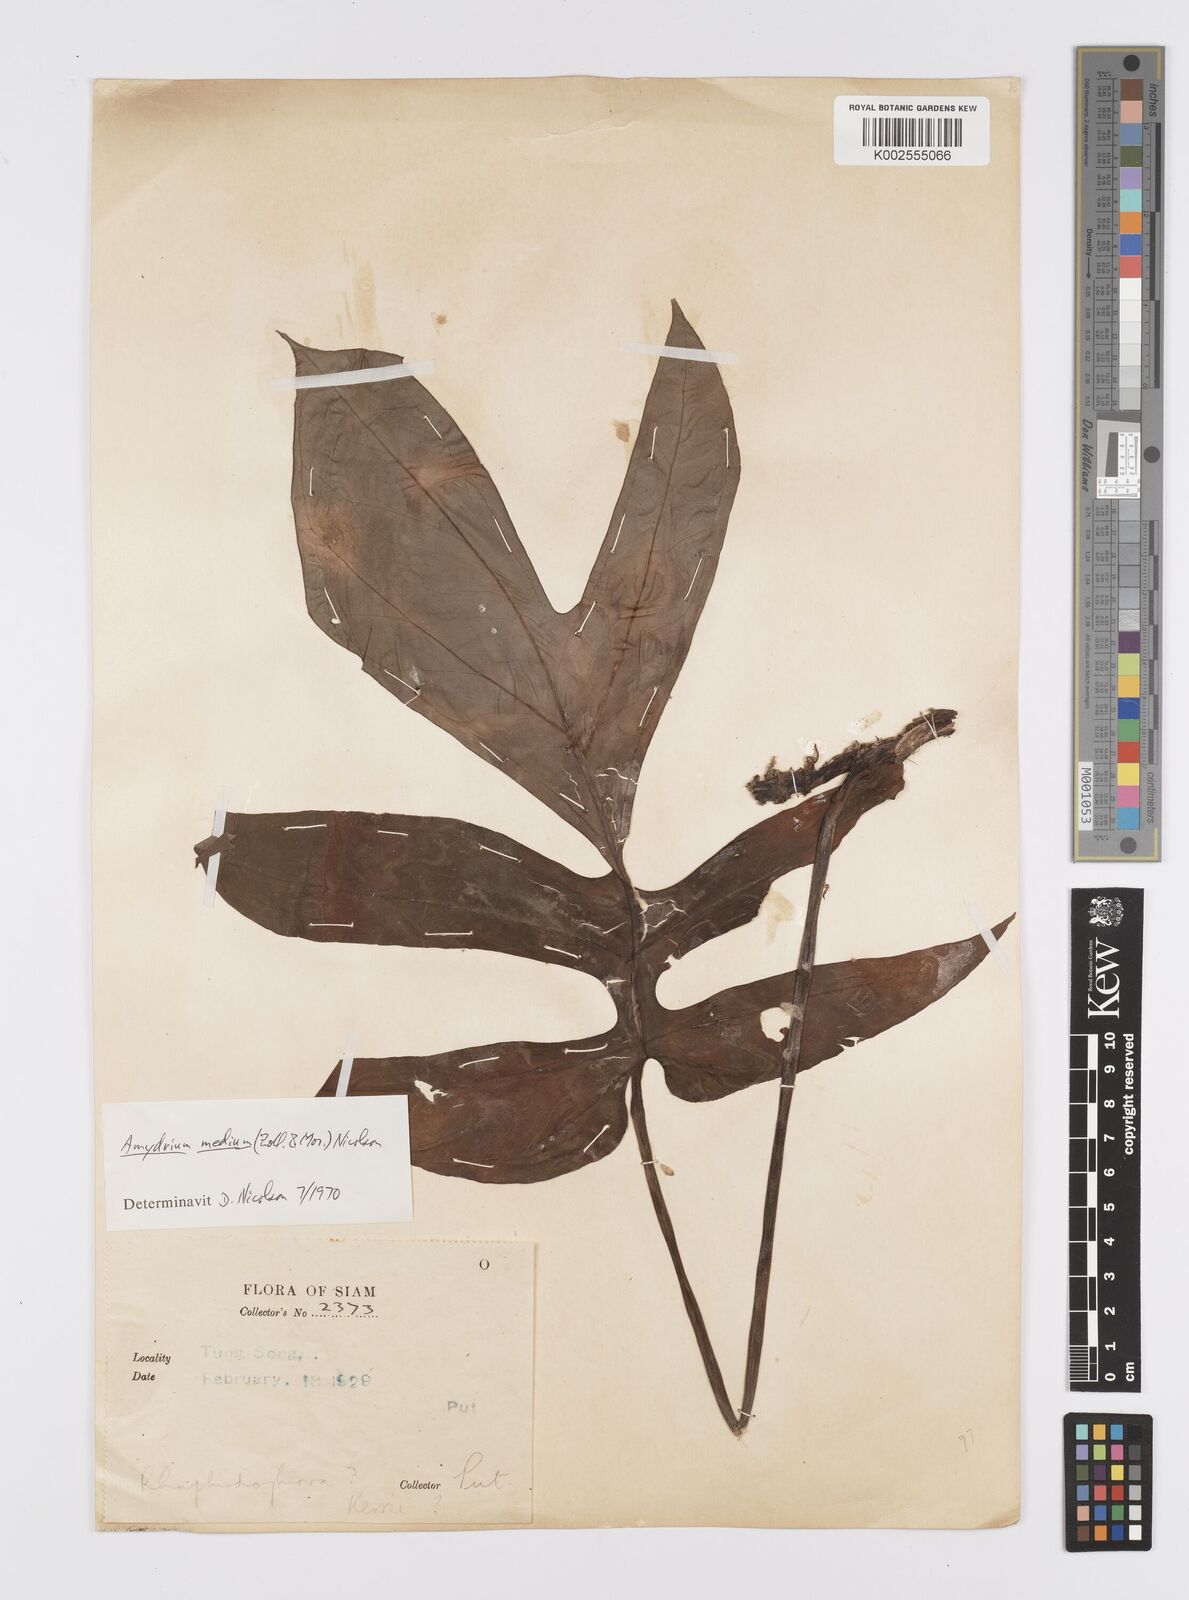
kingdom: Plantae
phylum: Tracheophyta
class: Liliopsida
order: Alismatales
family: Araceae
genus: Amydrium
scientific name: Amydrium medium
